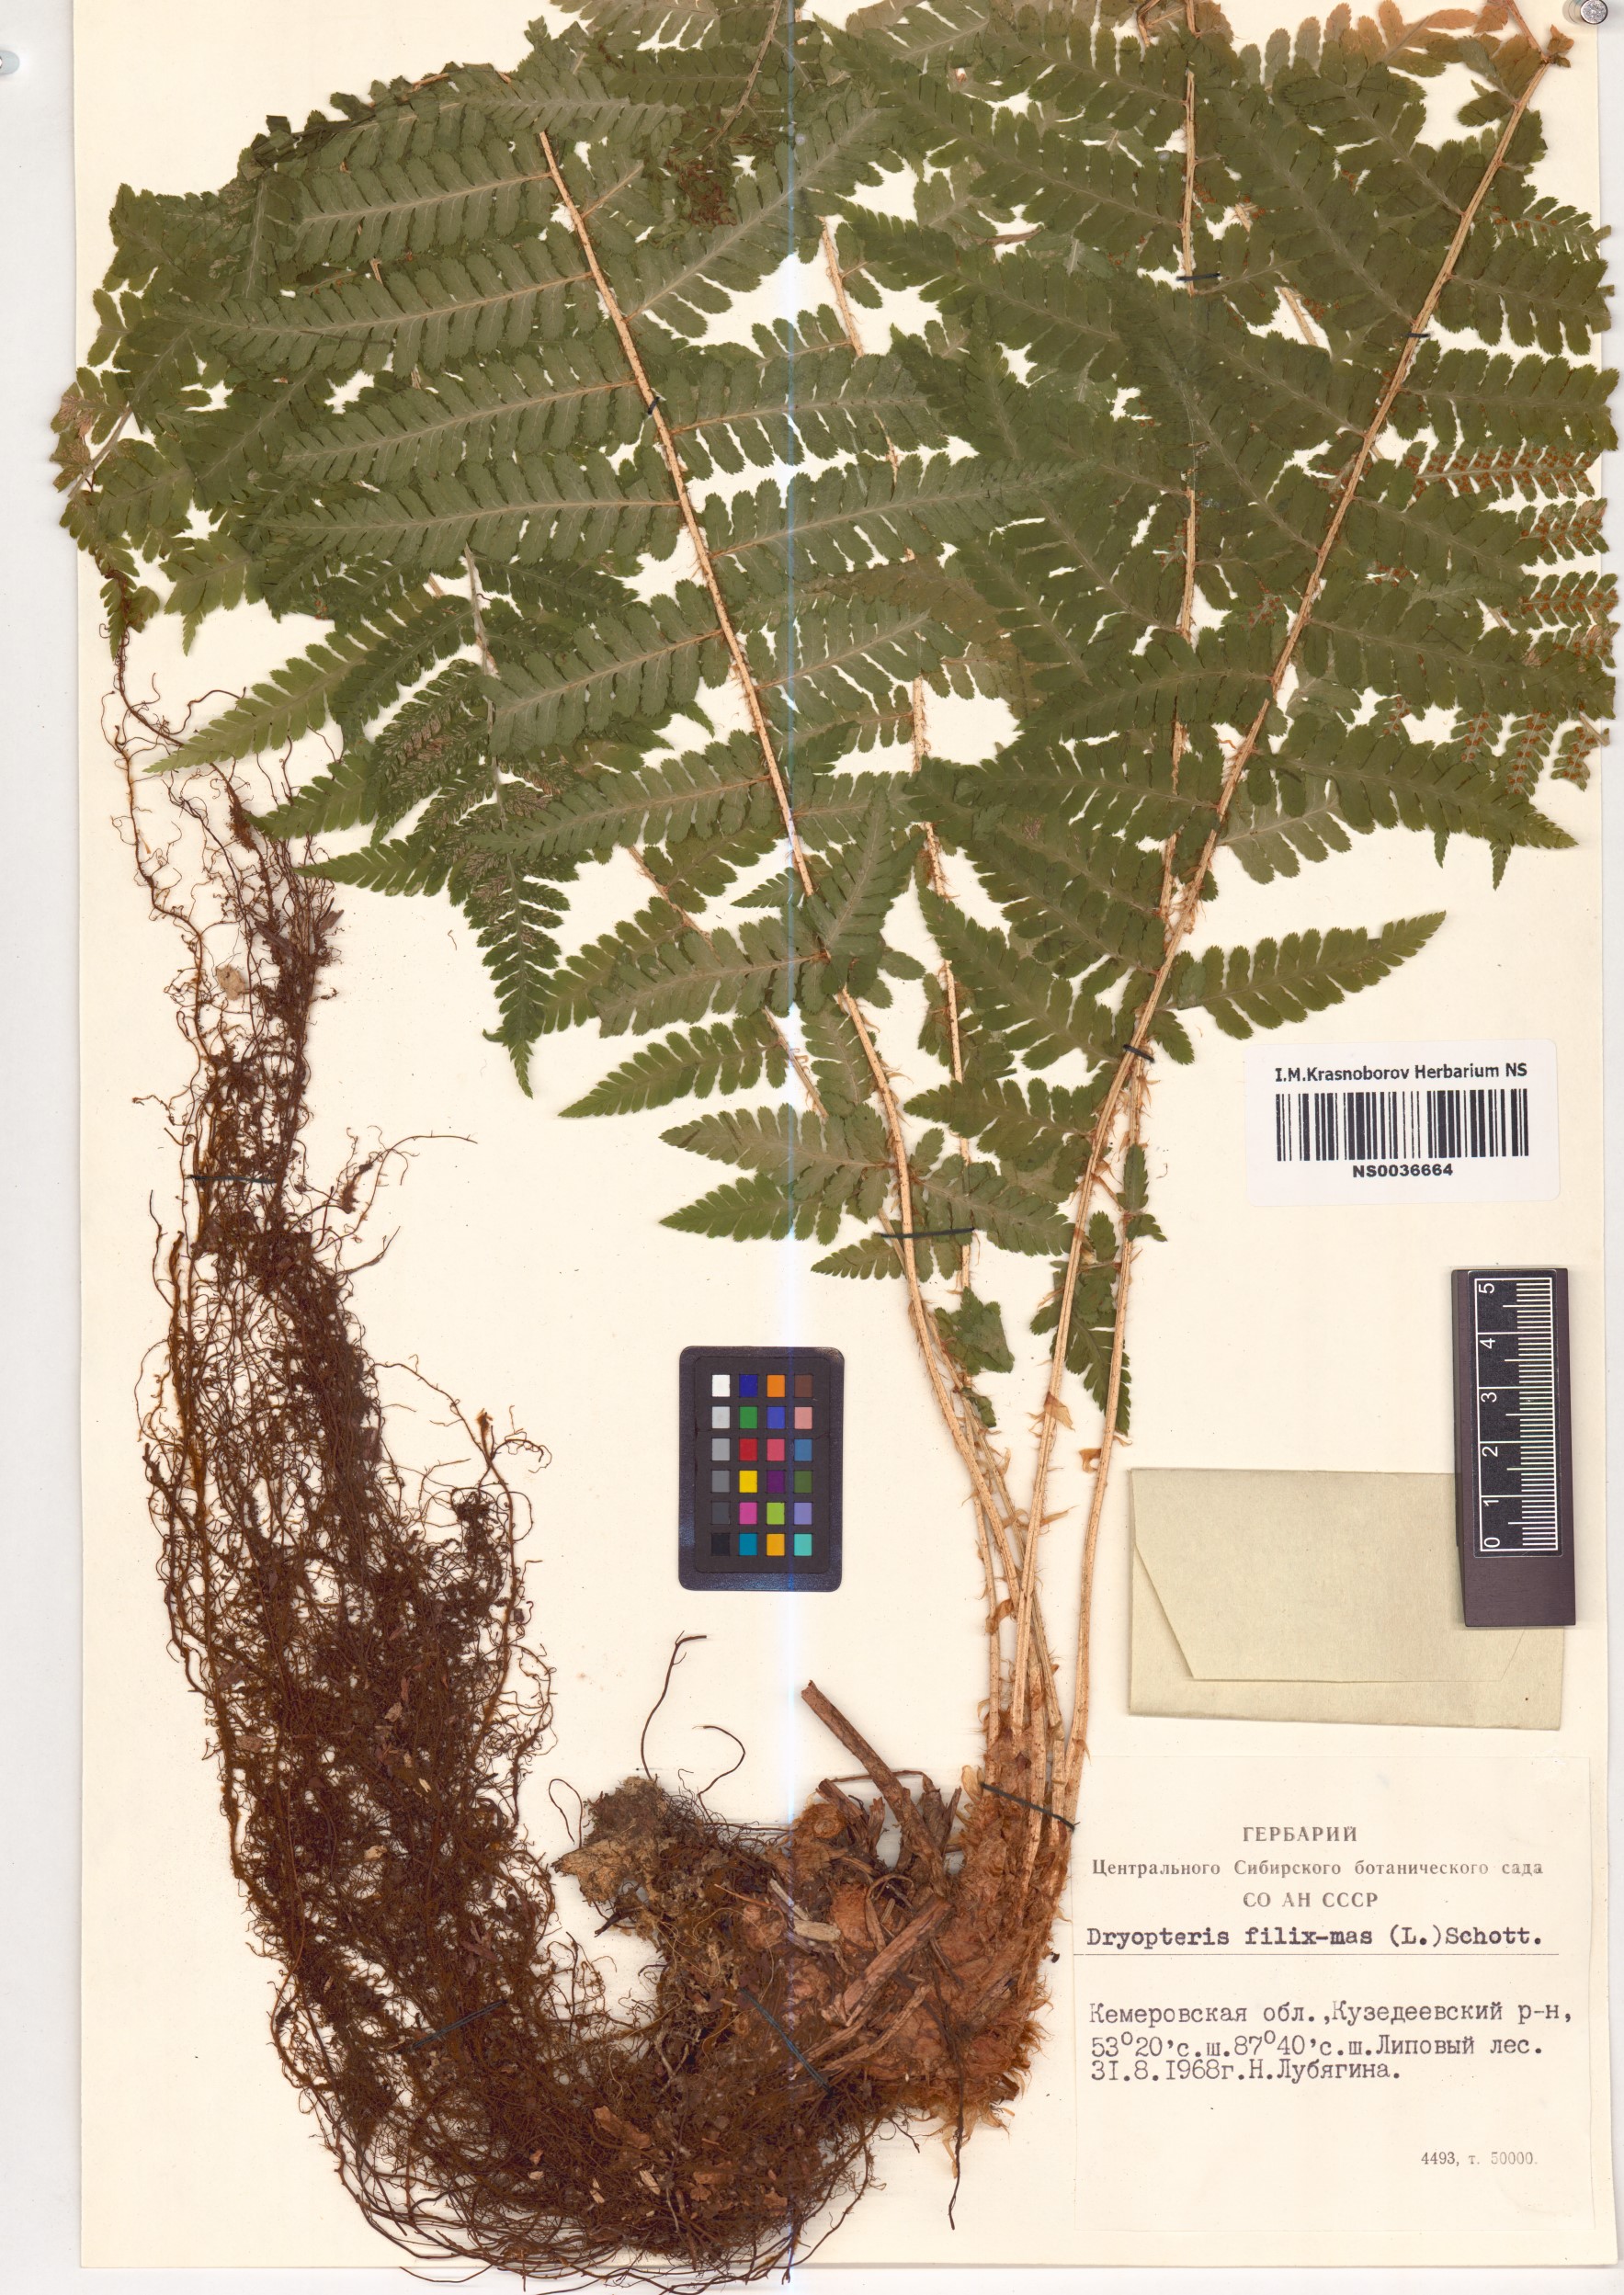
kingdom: Plantae
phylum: Tracheophyta
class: Polypodiopsida
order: Polypodiales
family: Dryopteridaceae
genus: Dryopteris
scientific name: Dryopteris filix-mas
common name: Male fern
